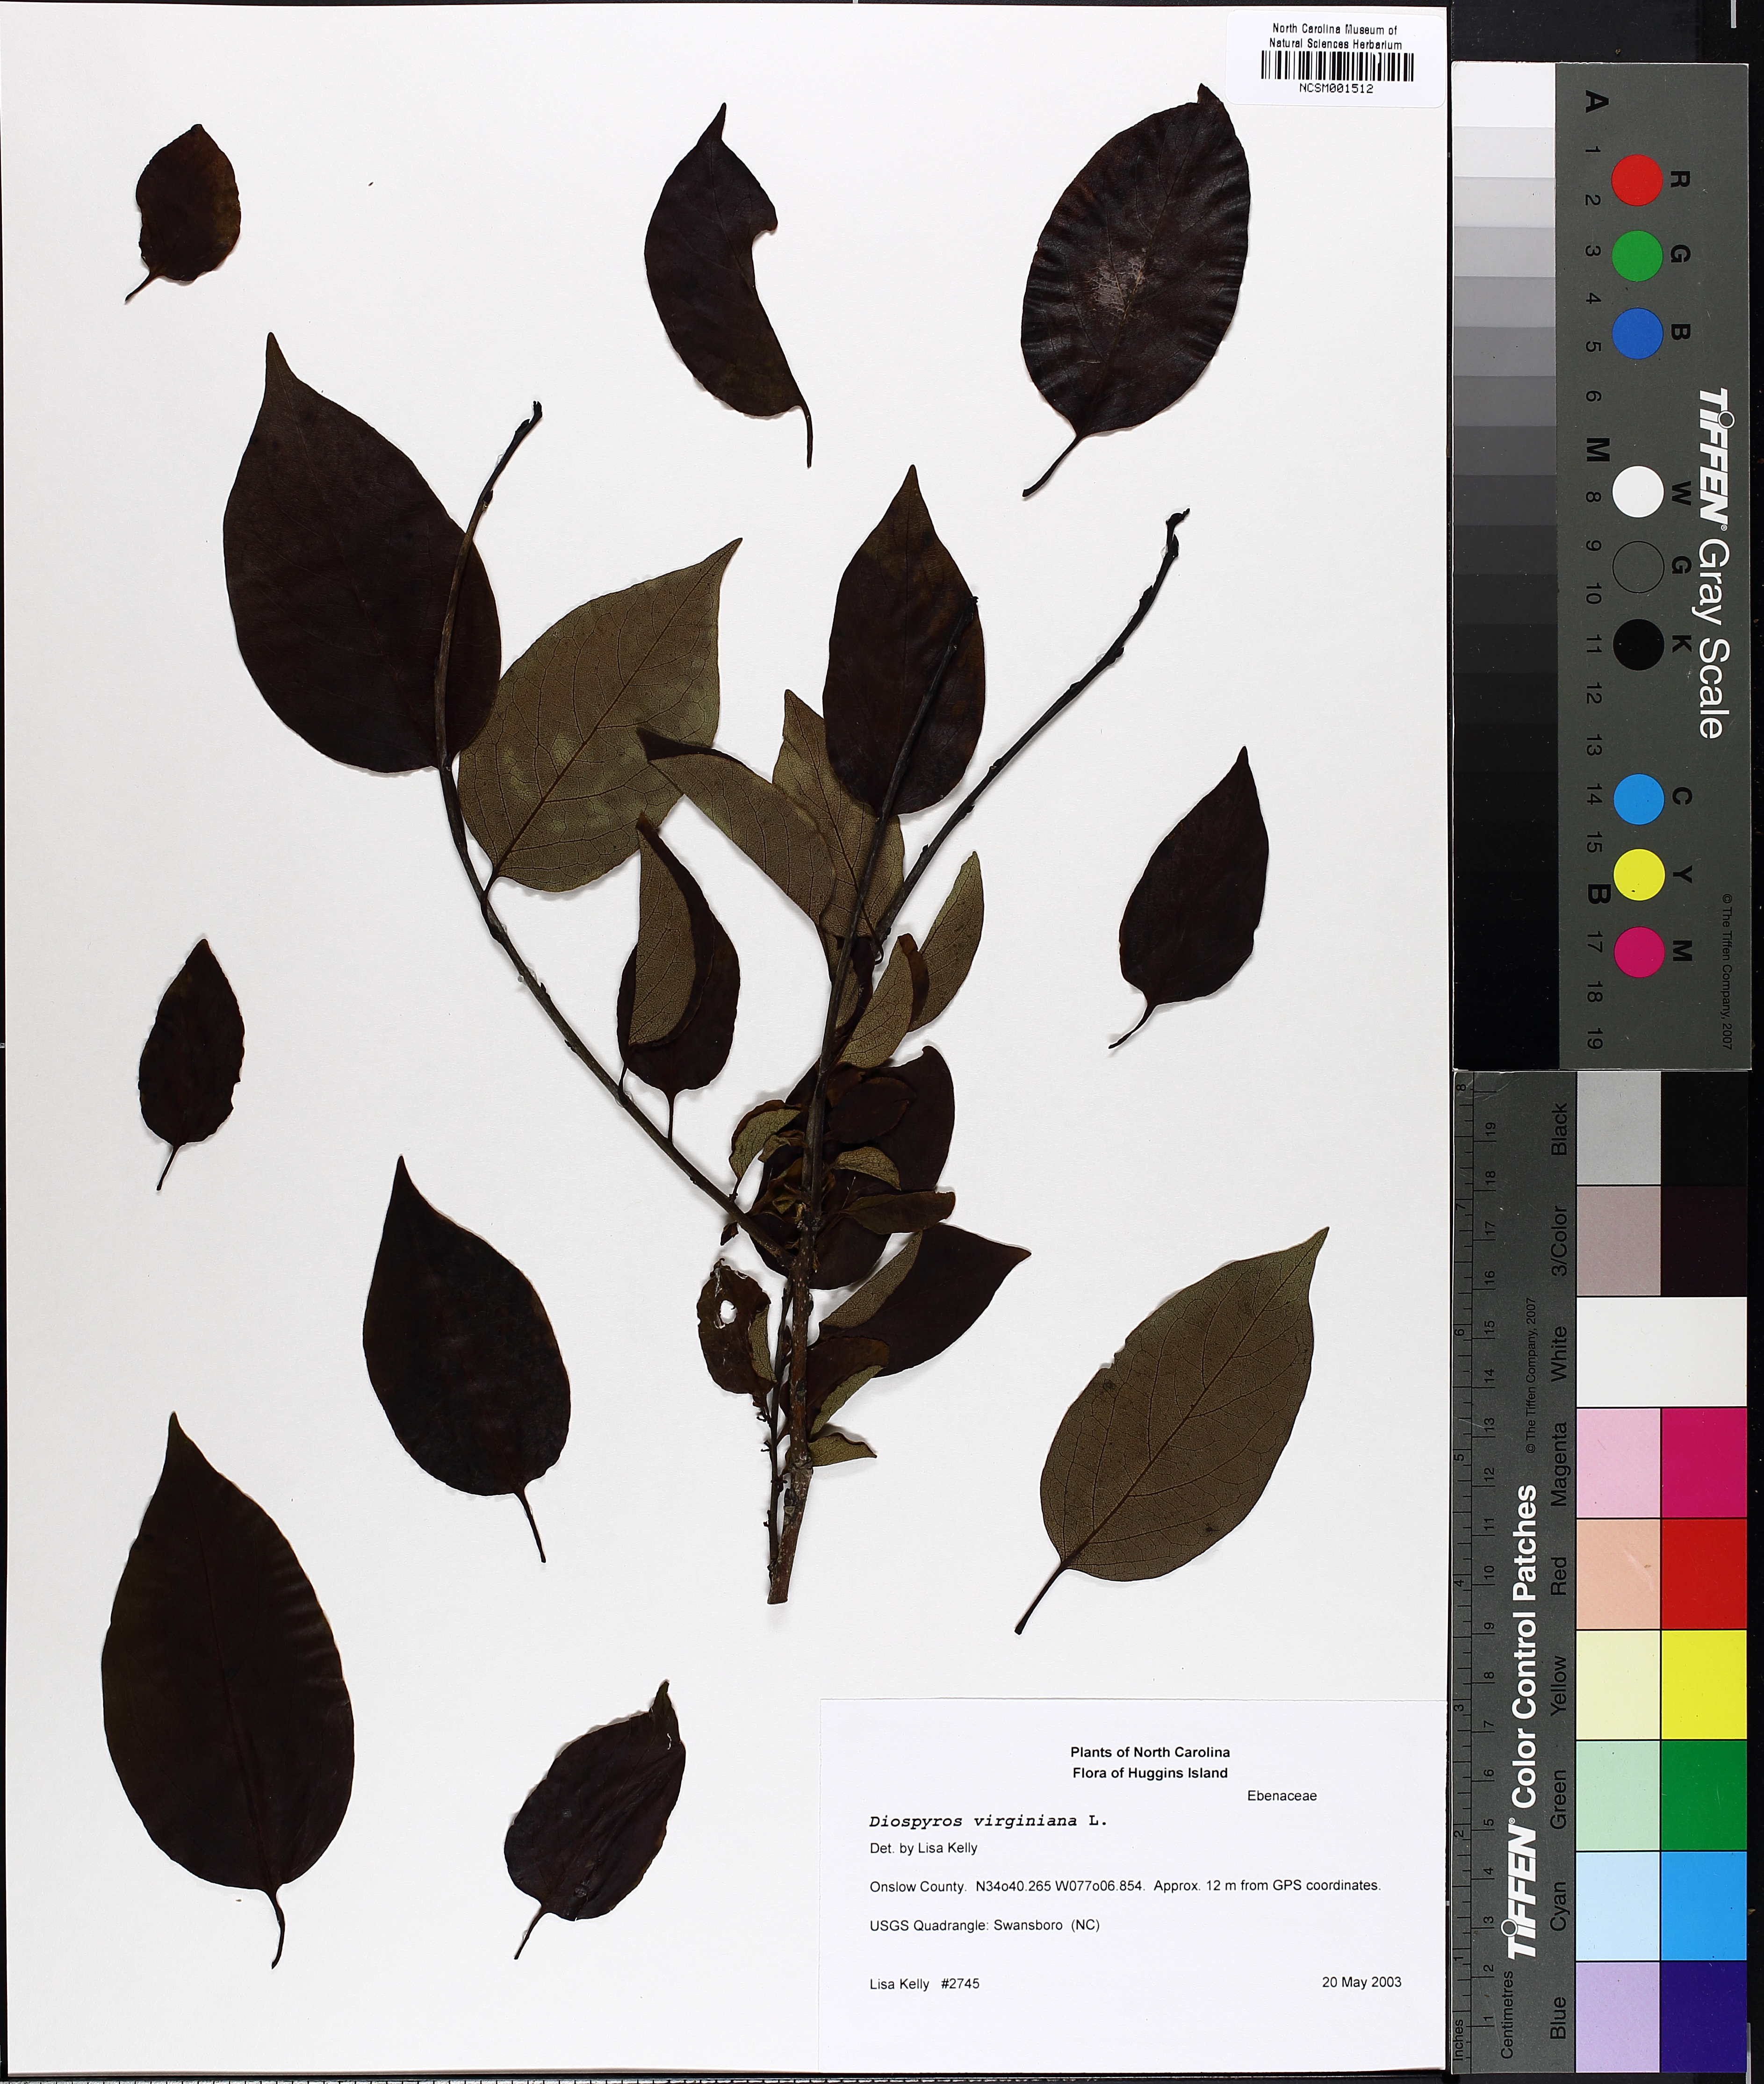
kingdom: Plantae
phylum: Tracheophyta
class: Magnoliopsida
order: Ericales
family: Ebenaceae
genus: Diospyros
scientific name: Diospyros virginiana
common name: Persimmon
